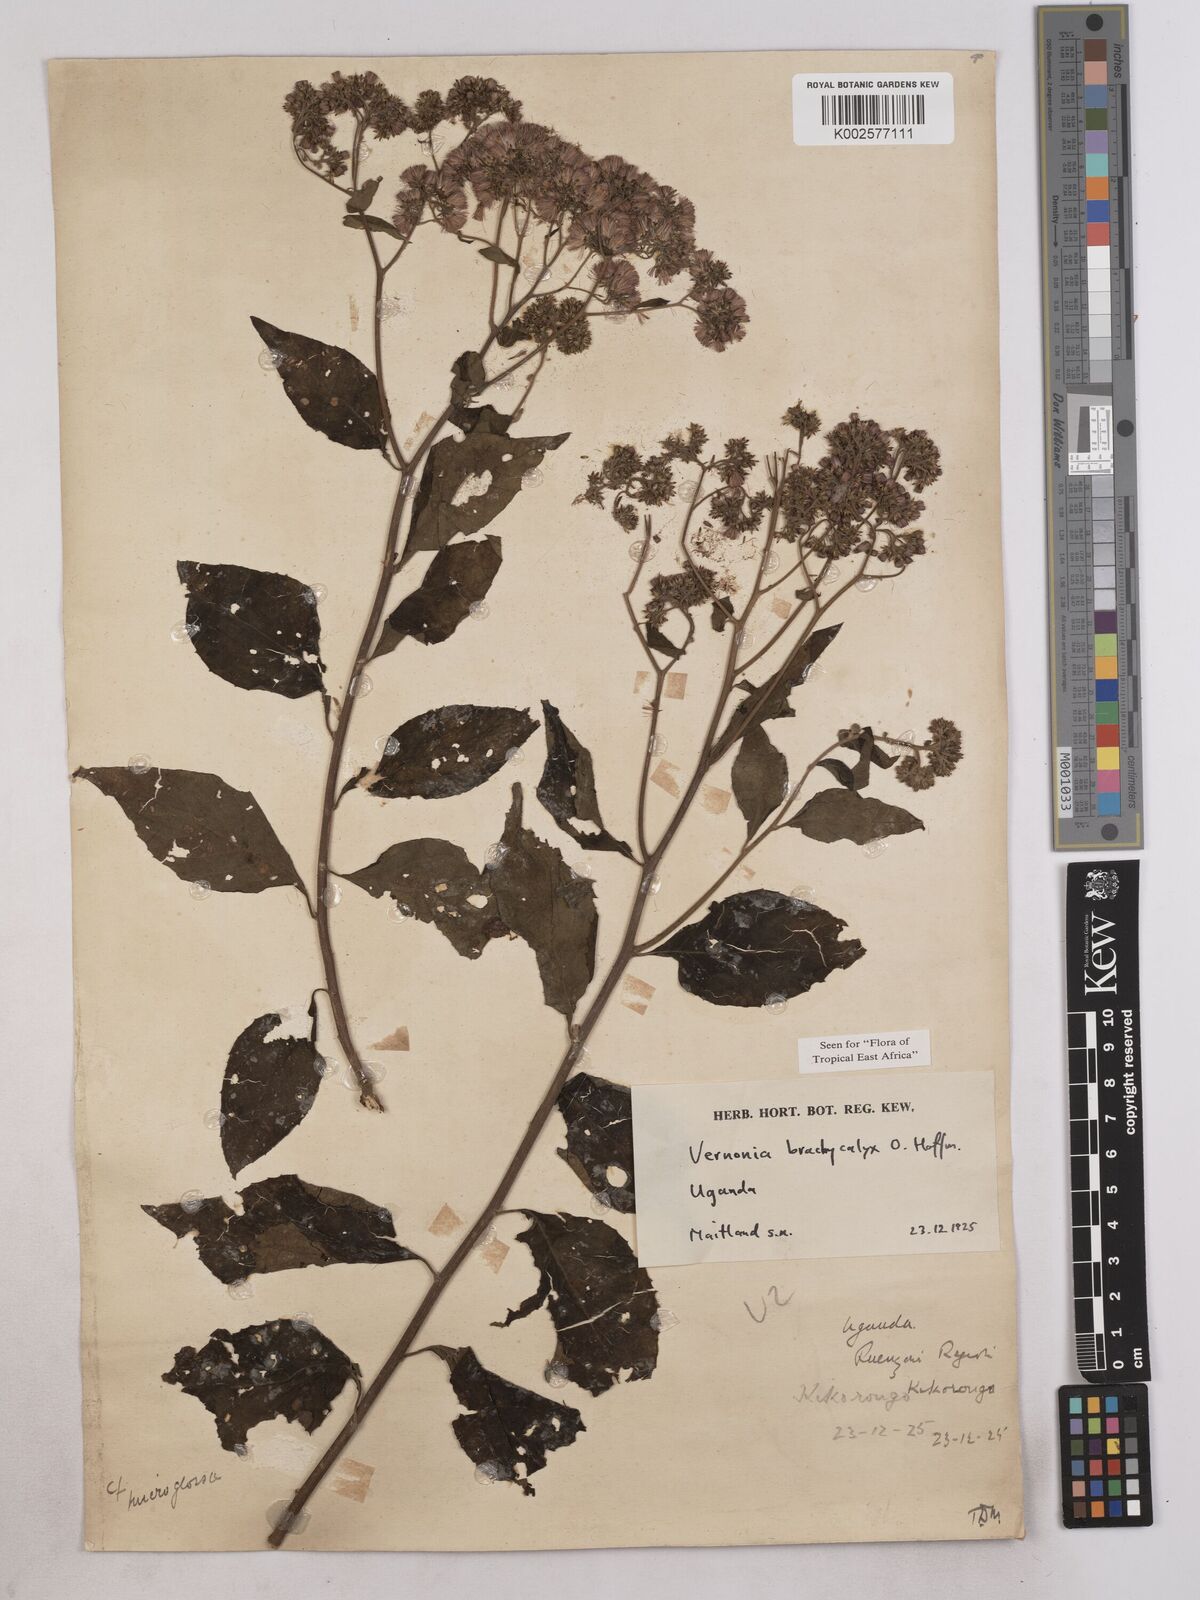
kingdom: Plantae
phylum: Tracheophyta
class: Magnoliopsida
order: Asterales
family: Asteraceae
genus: Hoffmannanthus
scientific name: Hoffmannanthus abbotianus
